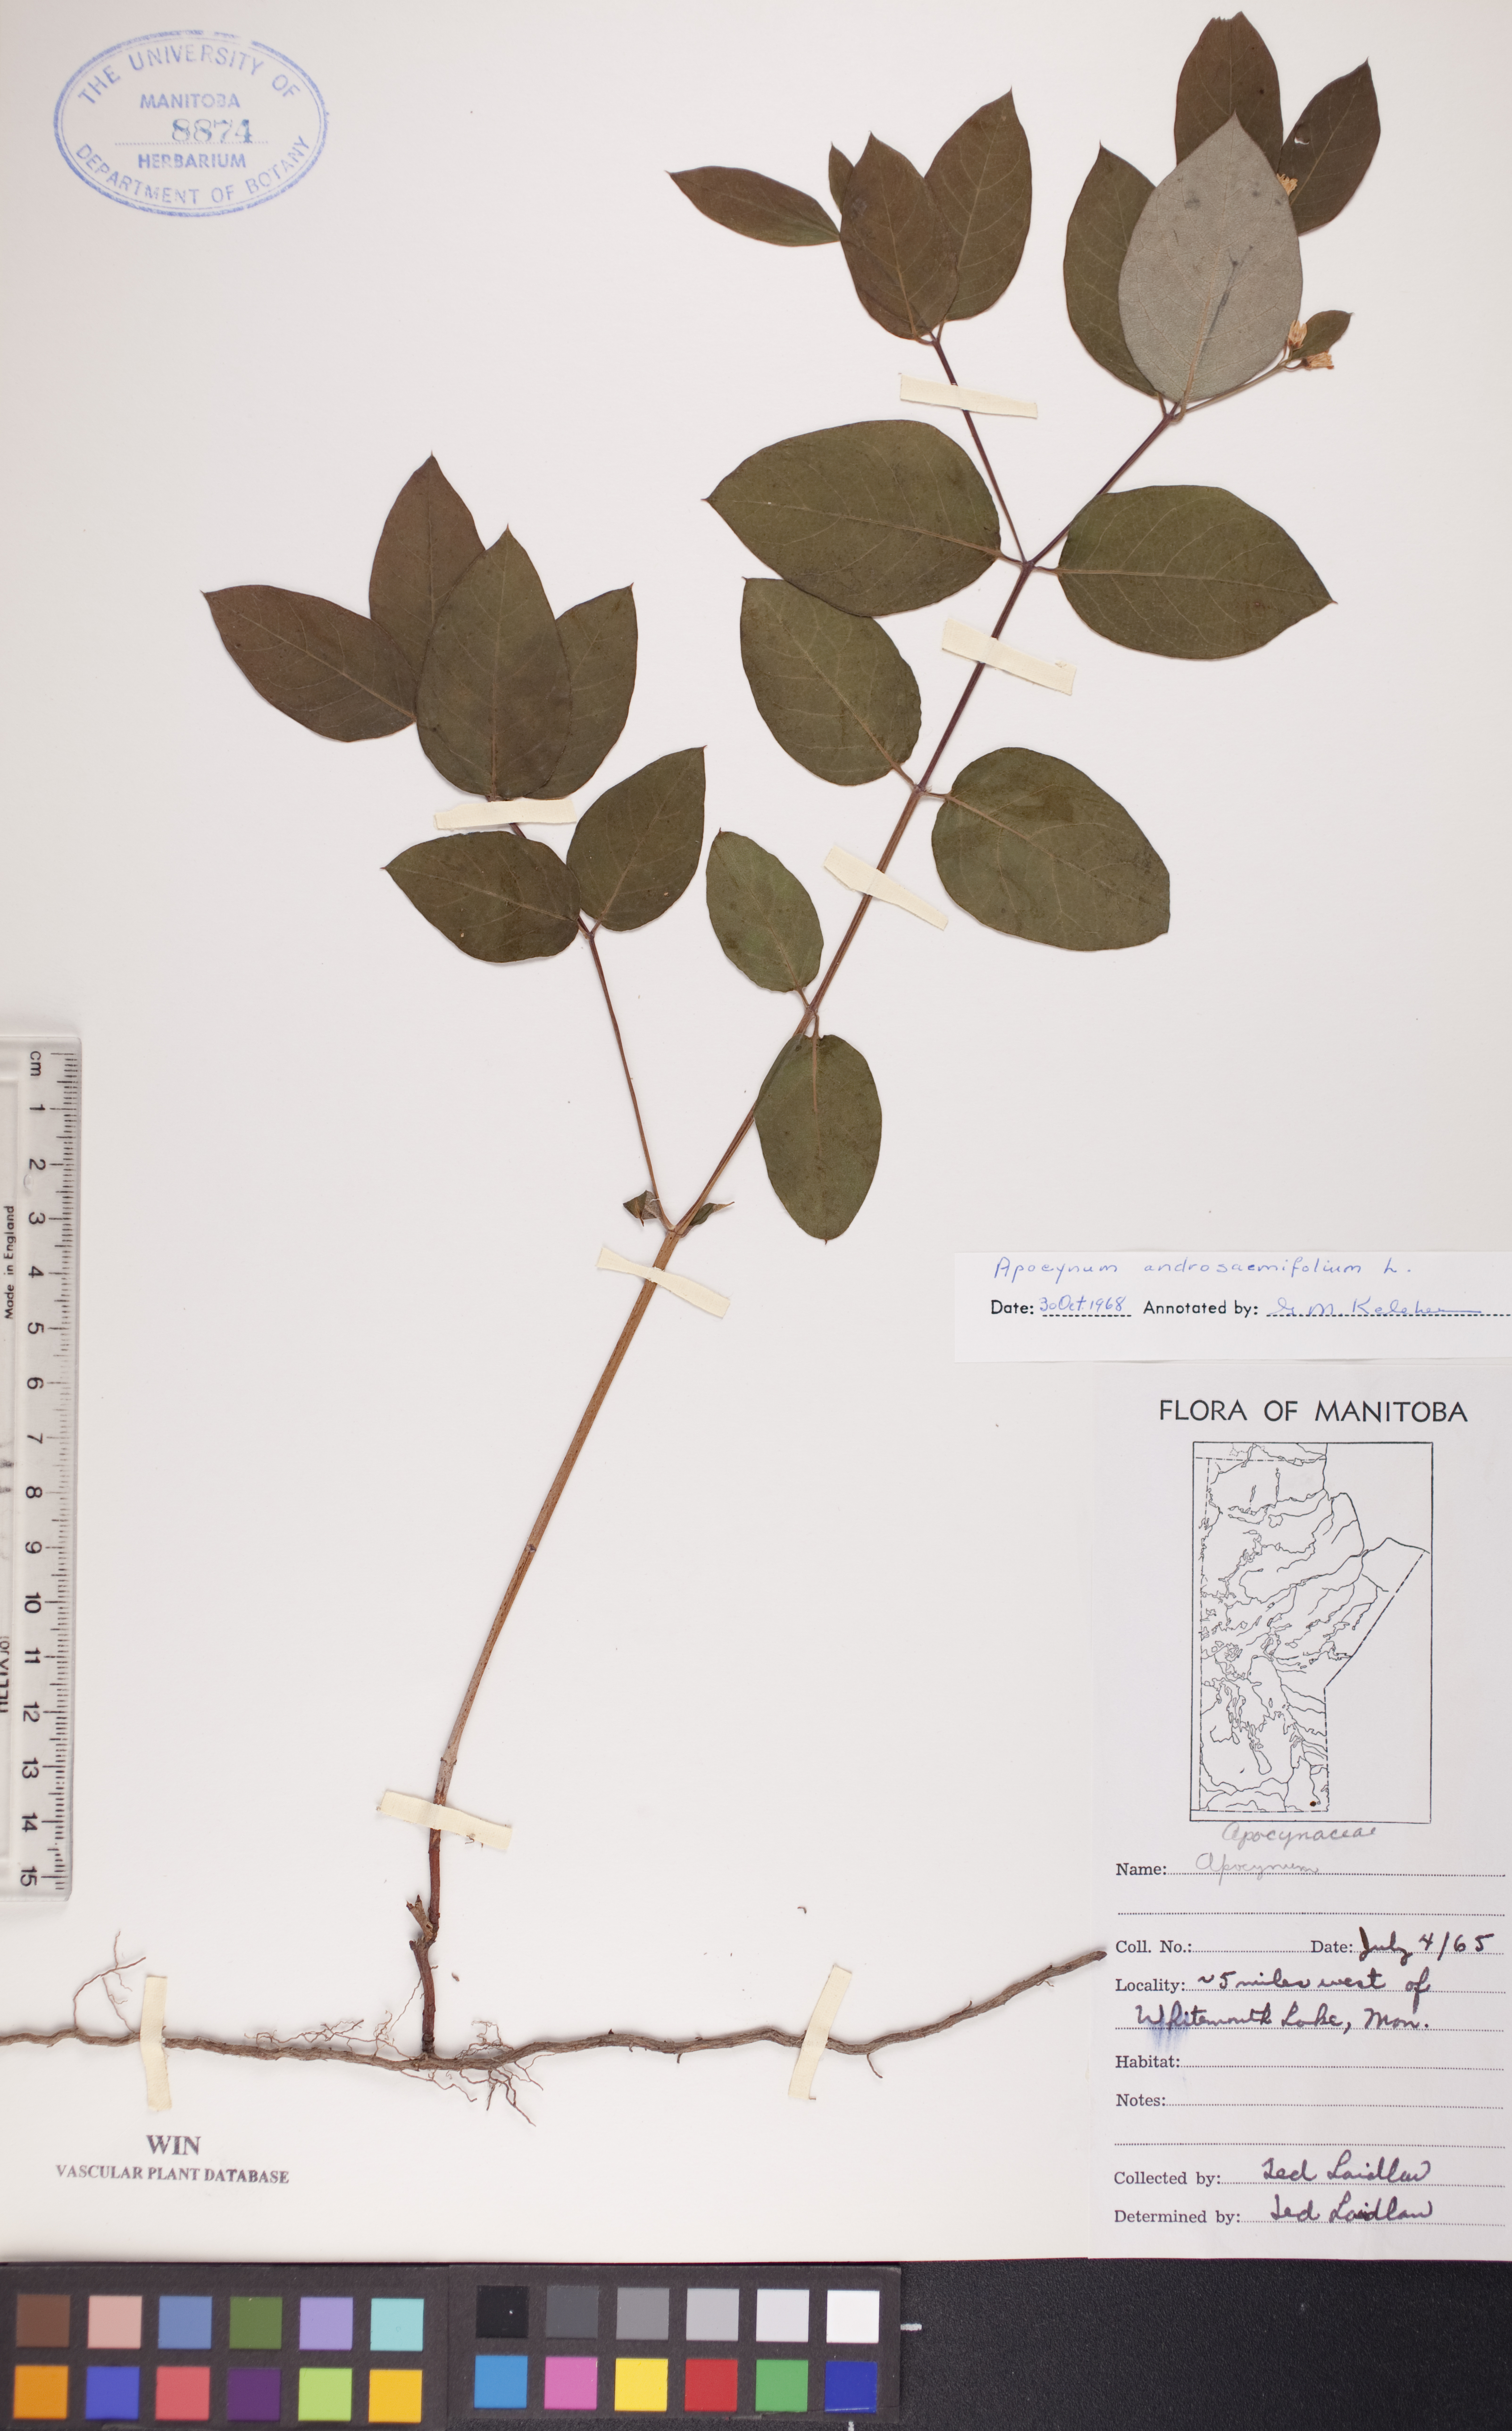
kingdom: Plantae
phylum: Tracheophyta
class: Magnoliopsida
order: Gentianales
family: Apocynaceae
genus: Apocynum
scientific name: Apocynum androsaemifolium
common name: Spreading dogbane
